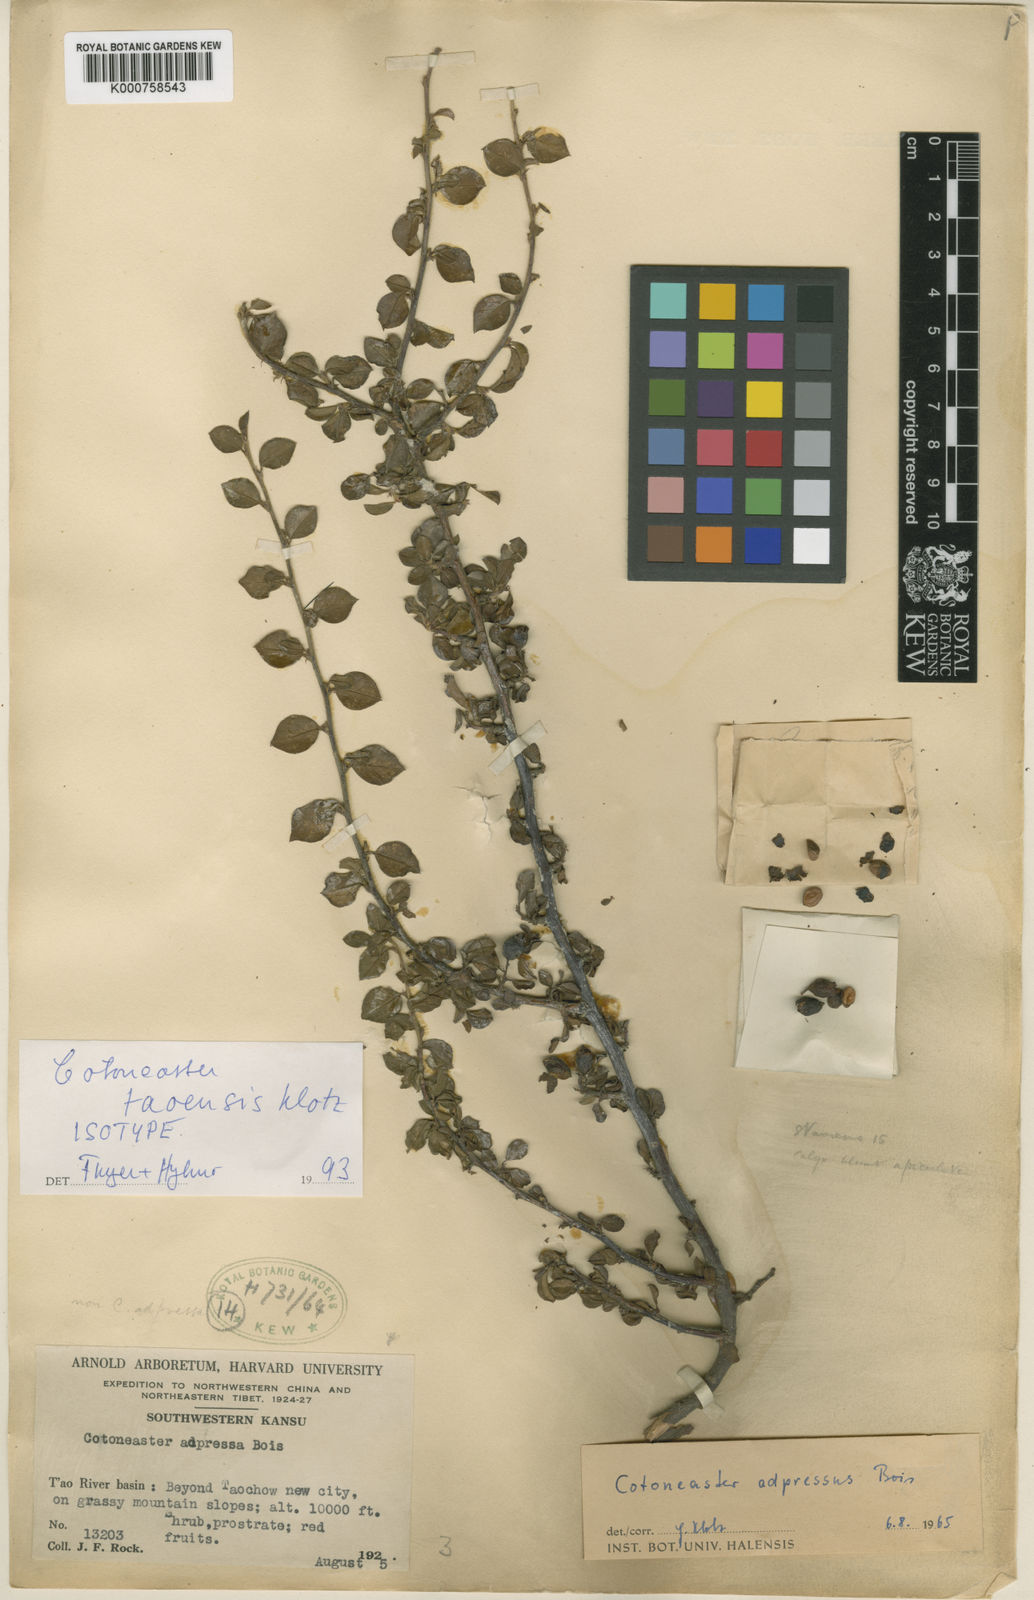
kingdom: Plantae
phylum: Tracheophyta
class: Magnoliopsida
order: Rosales
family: Rosaceae
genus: Cotoneaster
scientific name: Cotoneaster adpressus
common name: Creeping cotoneaster
